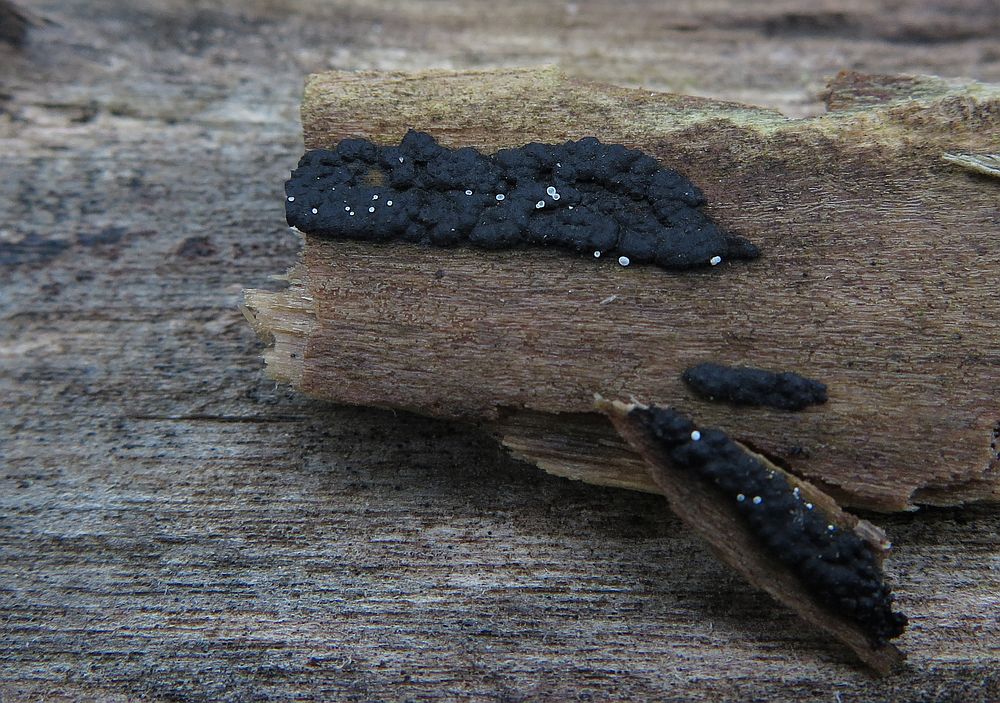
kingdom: Fungi
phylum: Ascomycota
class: Sordariomycetes
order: Xylariales
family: Xylariaceae
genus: Nemania
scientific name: Nemania serpens
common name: almindelig kuldyne
